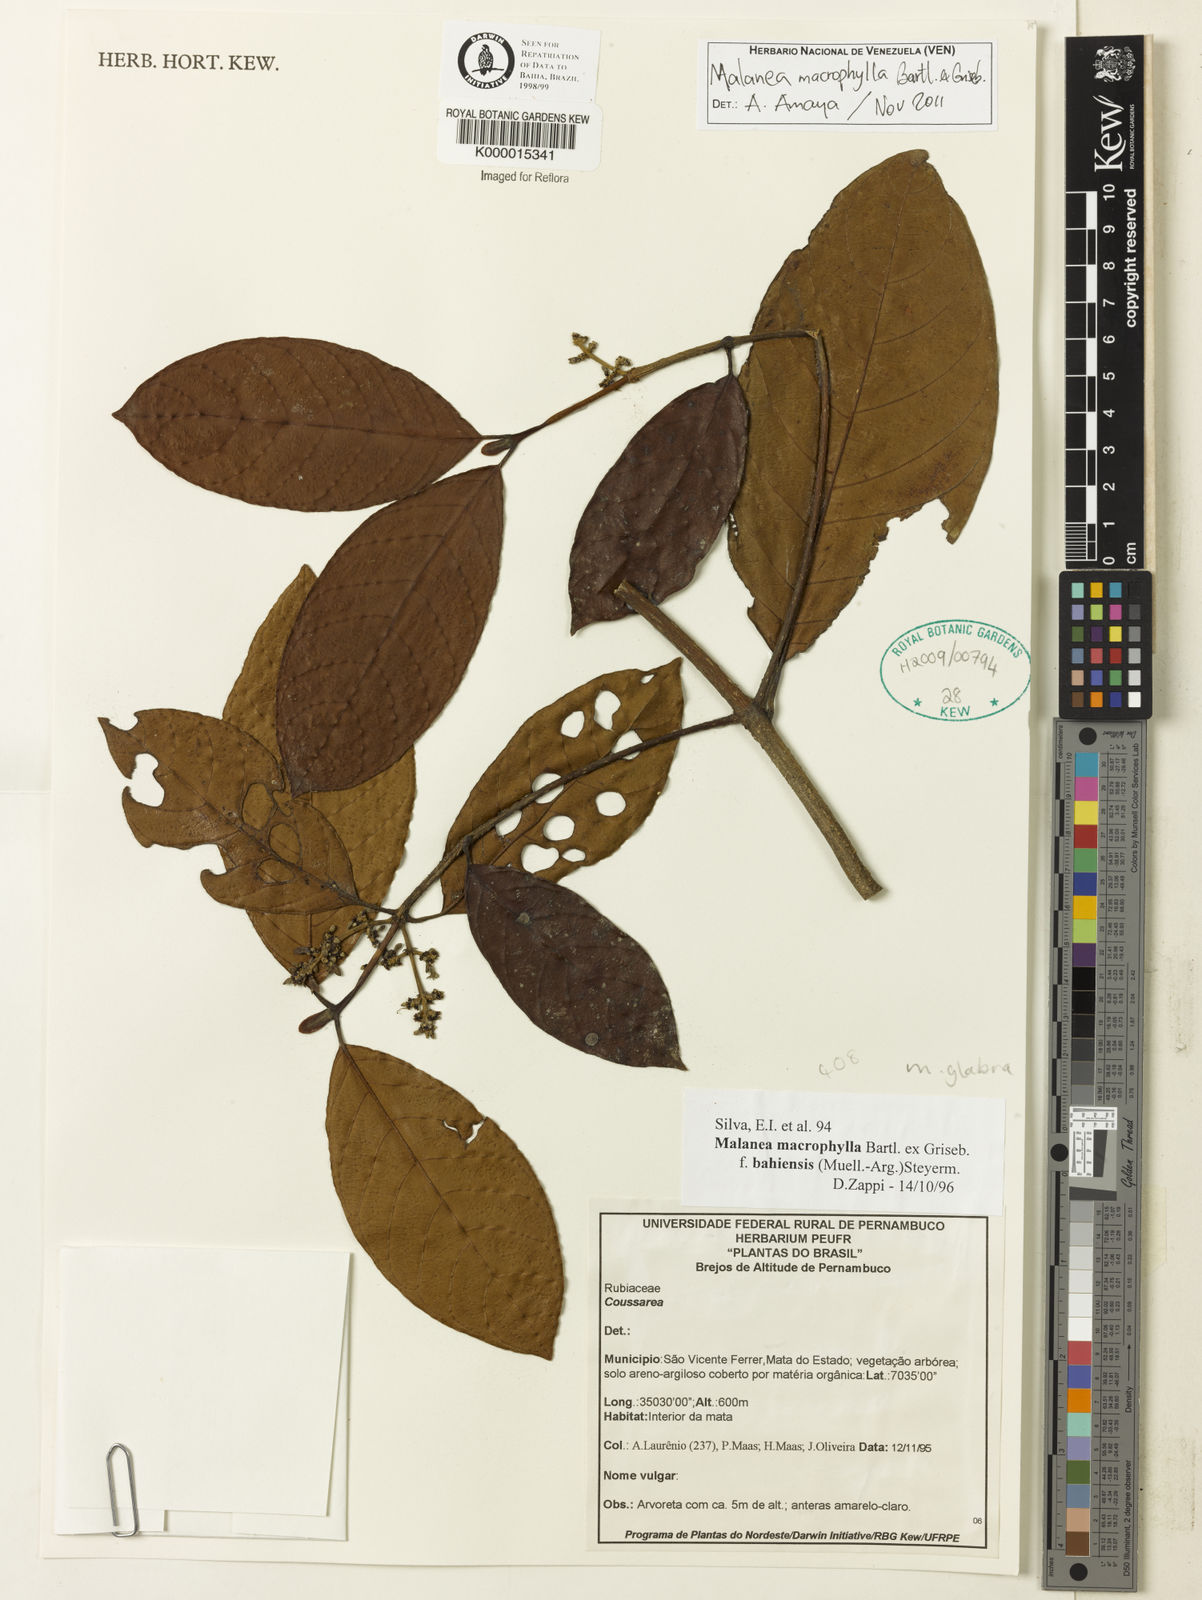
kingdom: Plantae
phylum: Tracheophyta
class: Magnoliopsida
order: Gentianales
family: Rubiaceae
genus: Malanea
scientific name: Malanea glabra
